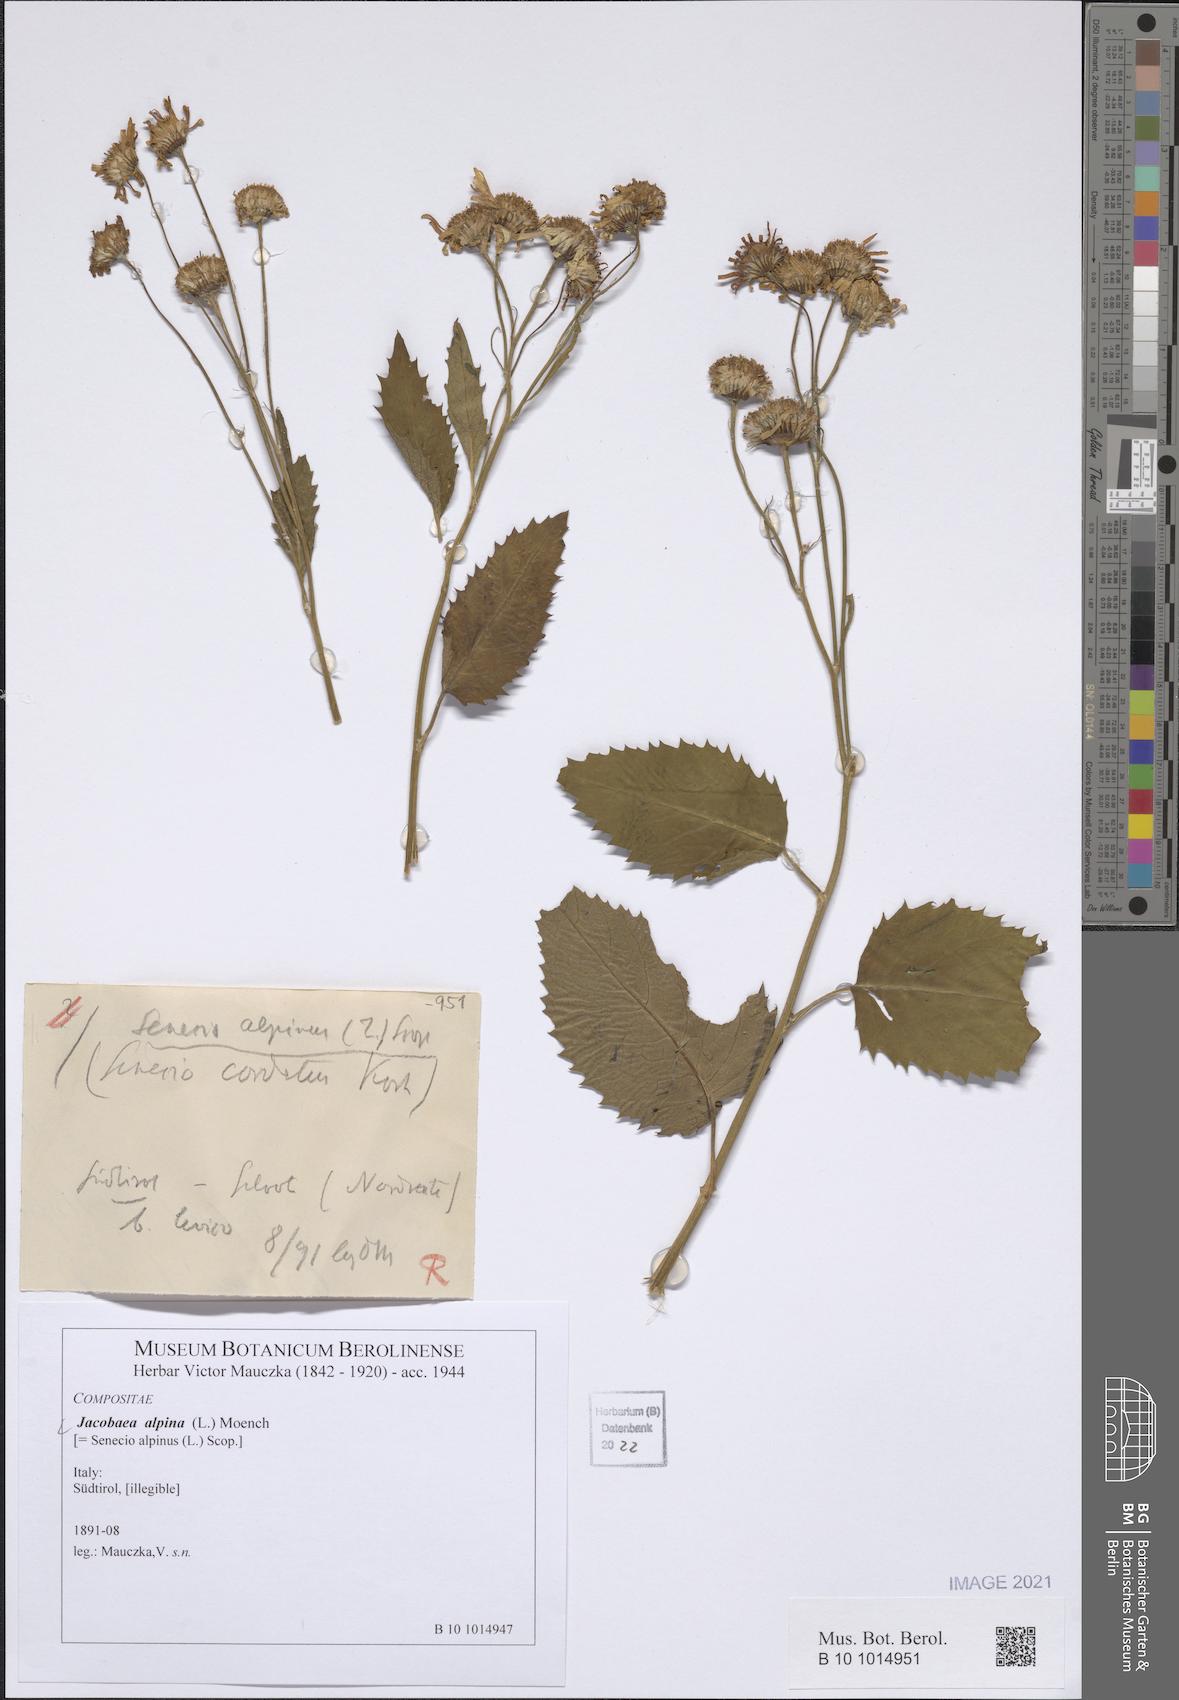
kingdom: Plantae
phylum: Tracheophyta
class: Magnoliopsida
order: Asterales
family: Asteraceae
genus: Jacobaea
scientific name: Jacobaea alpina
